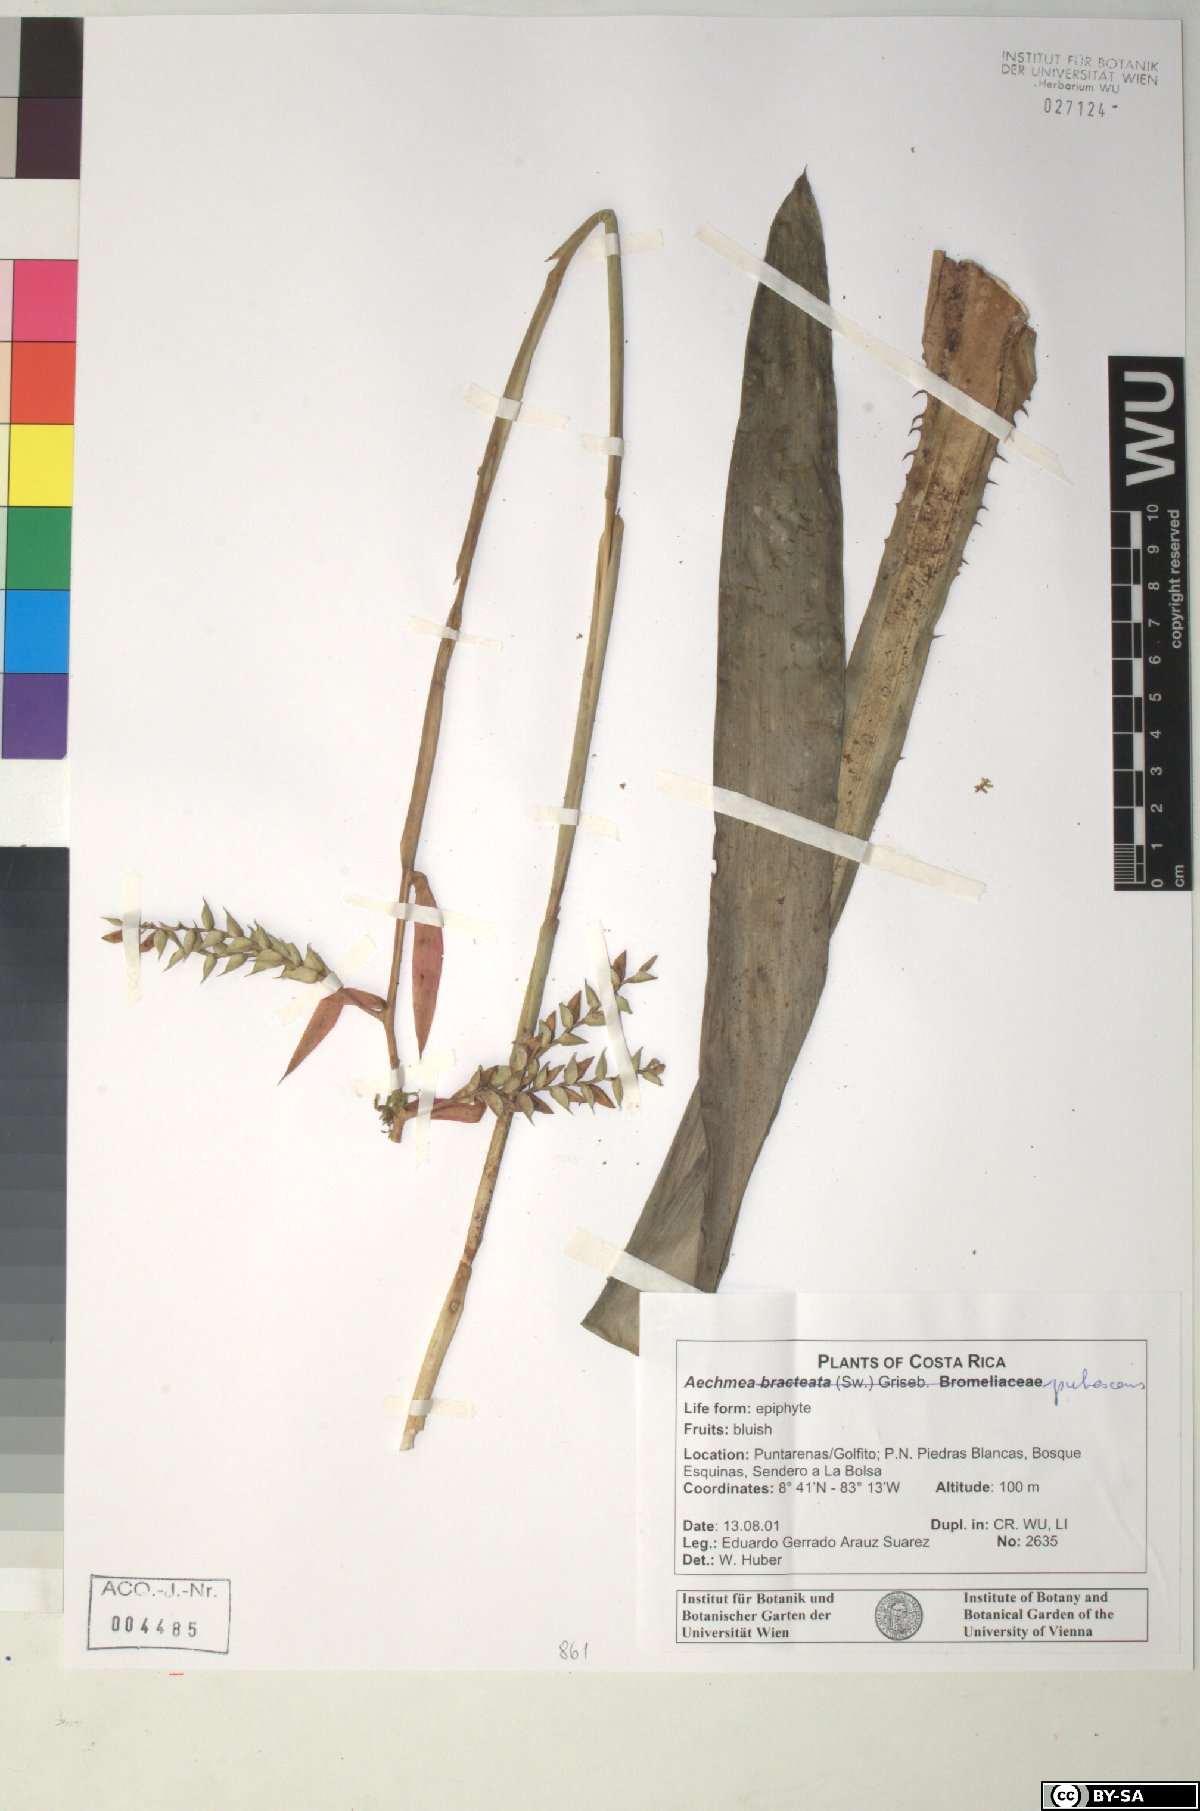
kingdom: Plantae
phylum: Tracheophyta
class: Liliopsida
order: Poales
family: Bromeliaceae
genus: Aechmea
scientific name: Aechmea bracteata
